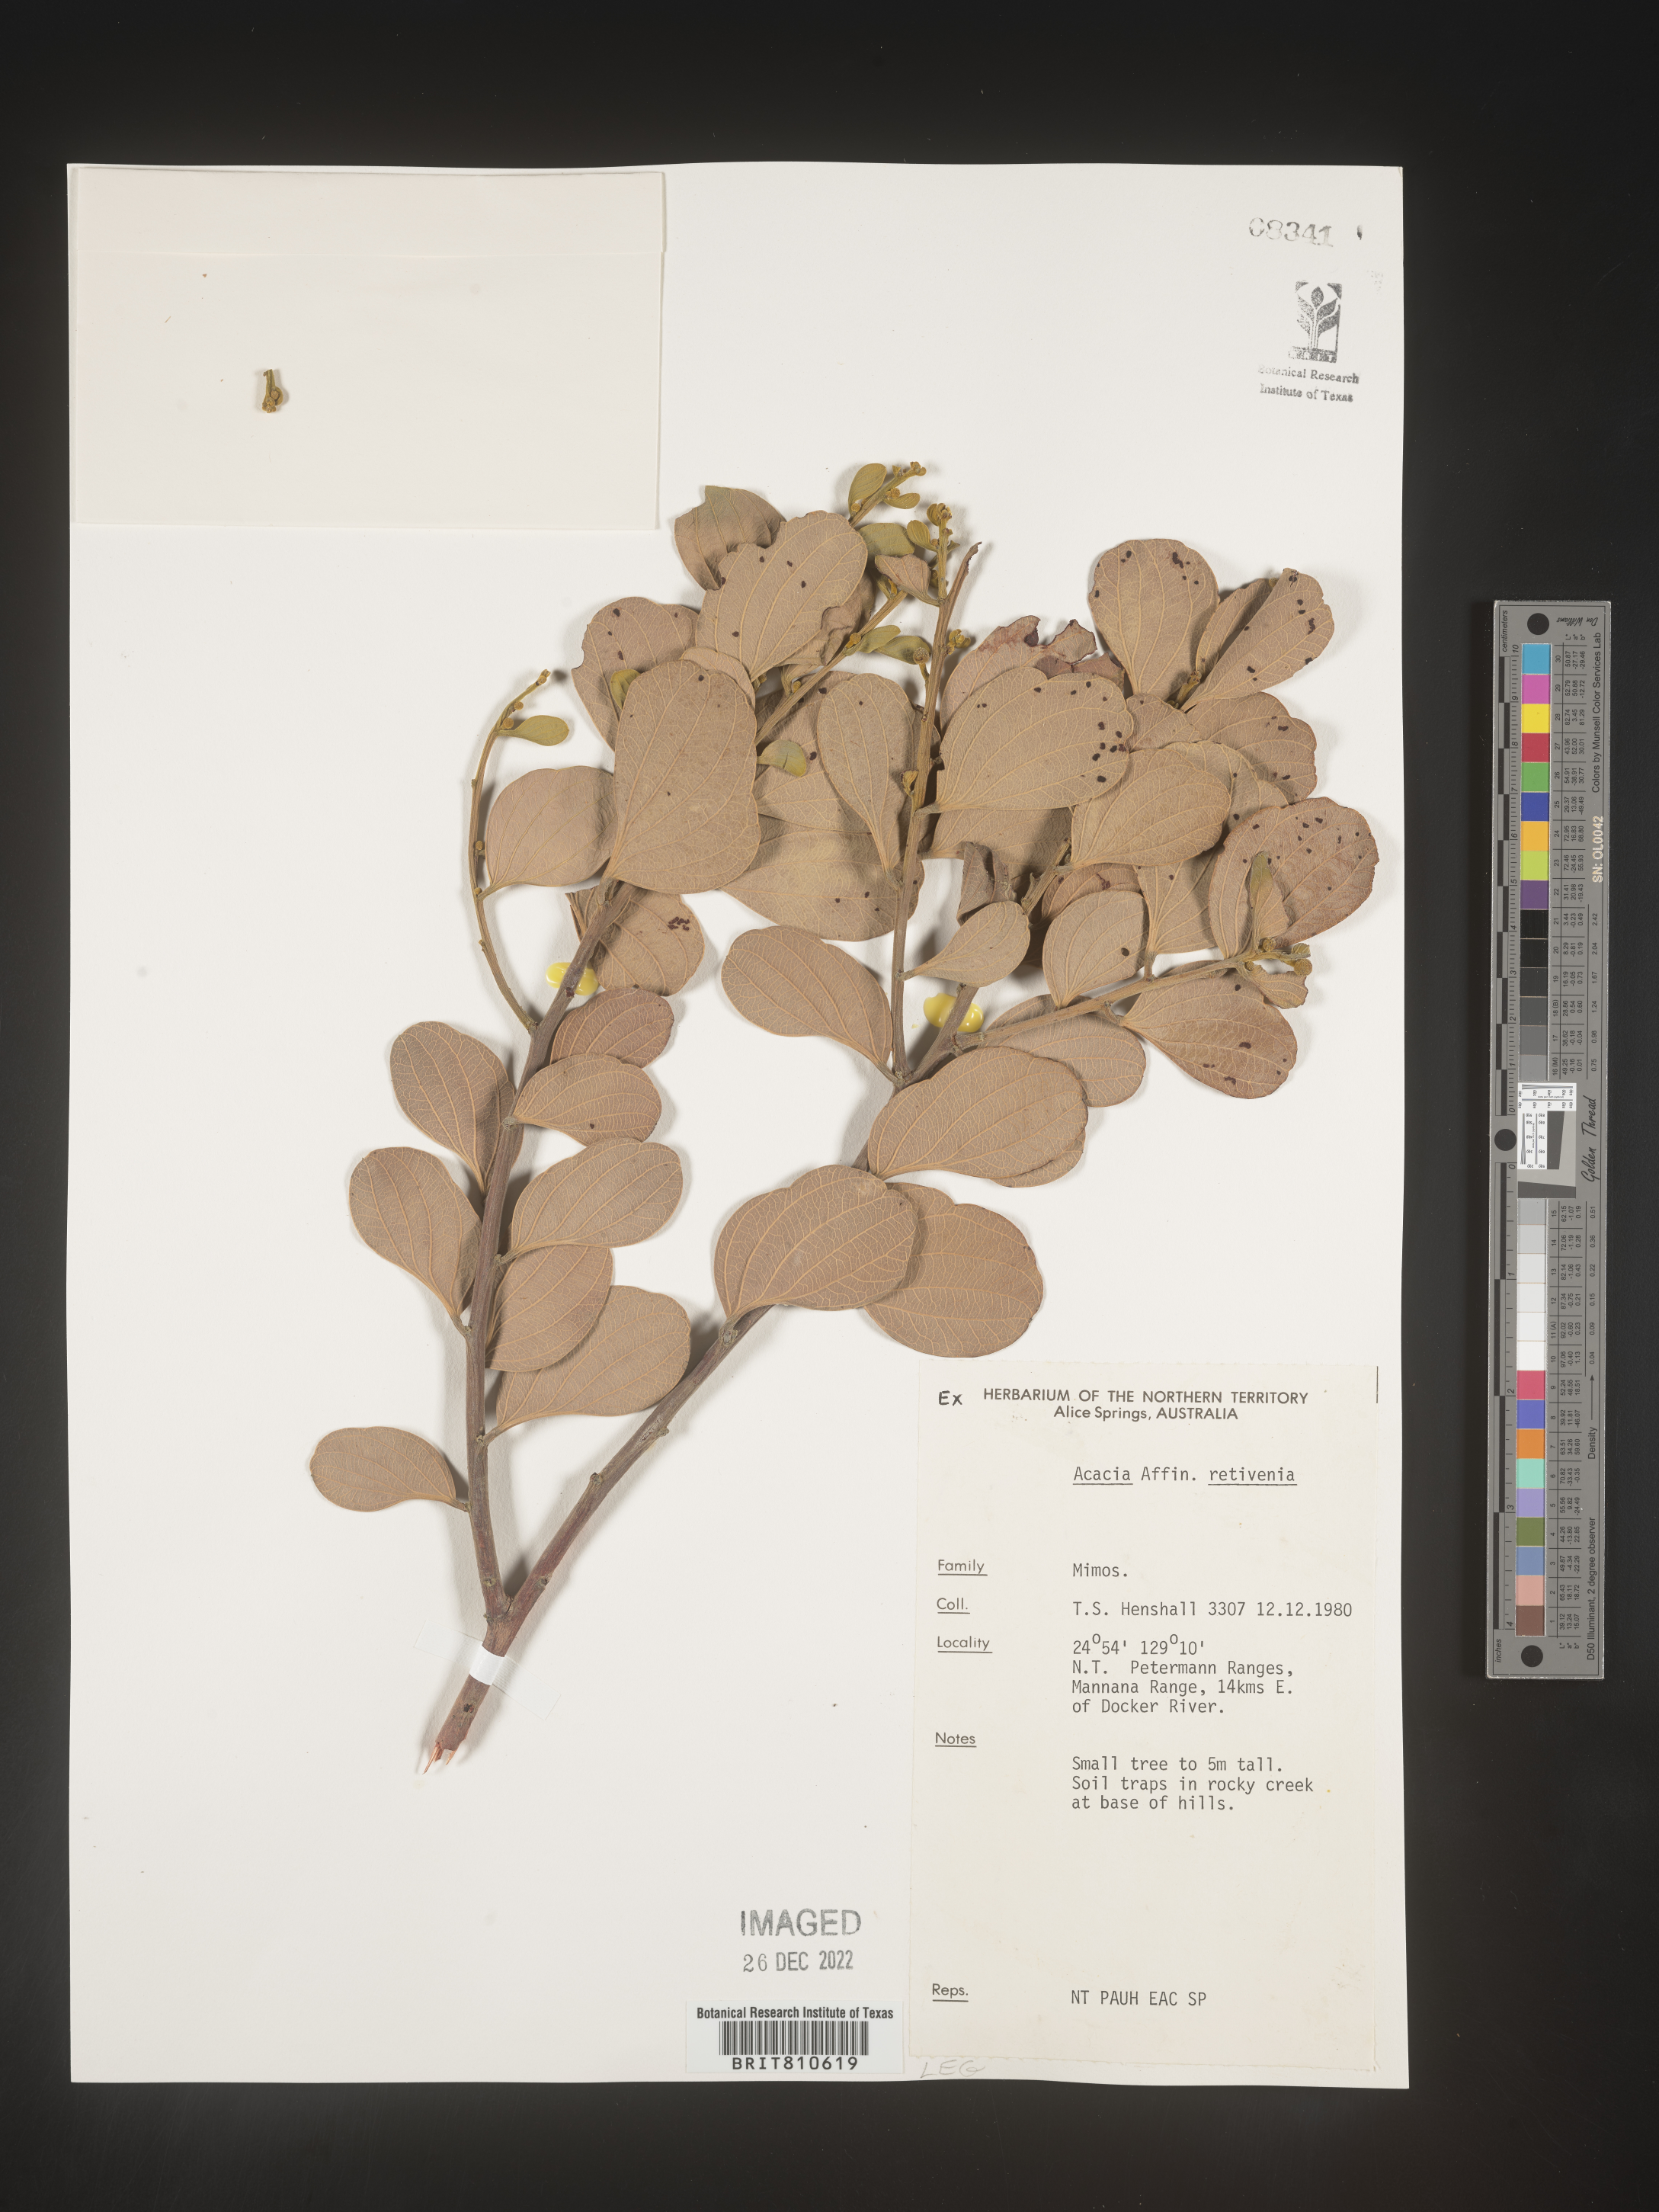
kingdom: Plantae
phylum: Tracheophyta
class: Magnoliopsida
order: Fabales
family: Fabaceae
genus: Acacia
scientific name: Acacia
